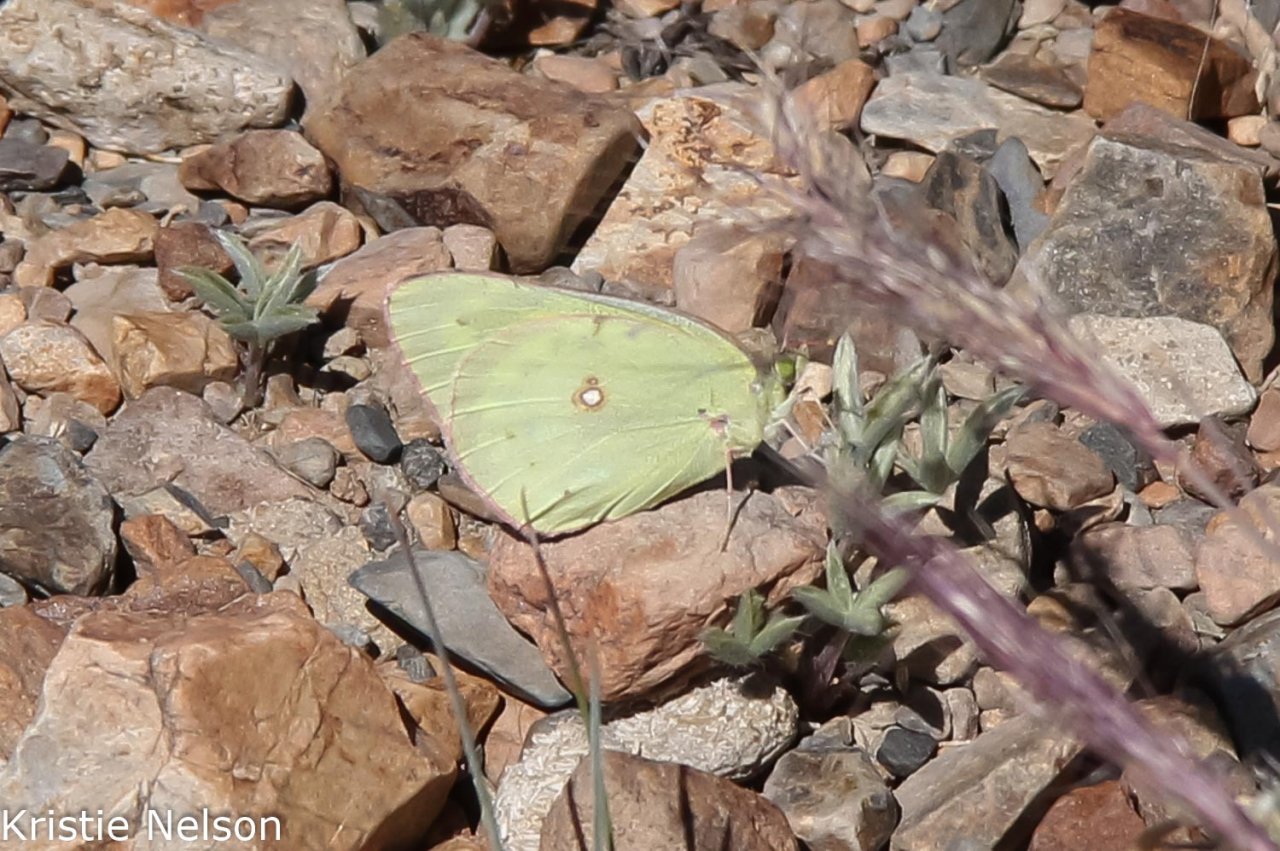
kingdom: Animalia
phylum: Arthropoda
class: Insecta
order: Lepidoptera
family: Pieridae
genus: Colias
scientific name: Colias eurytheme
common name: Orange Sulphur
